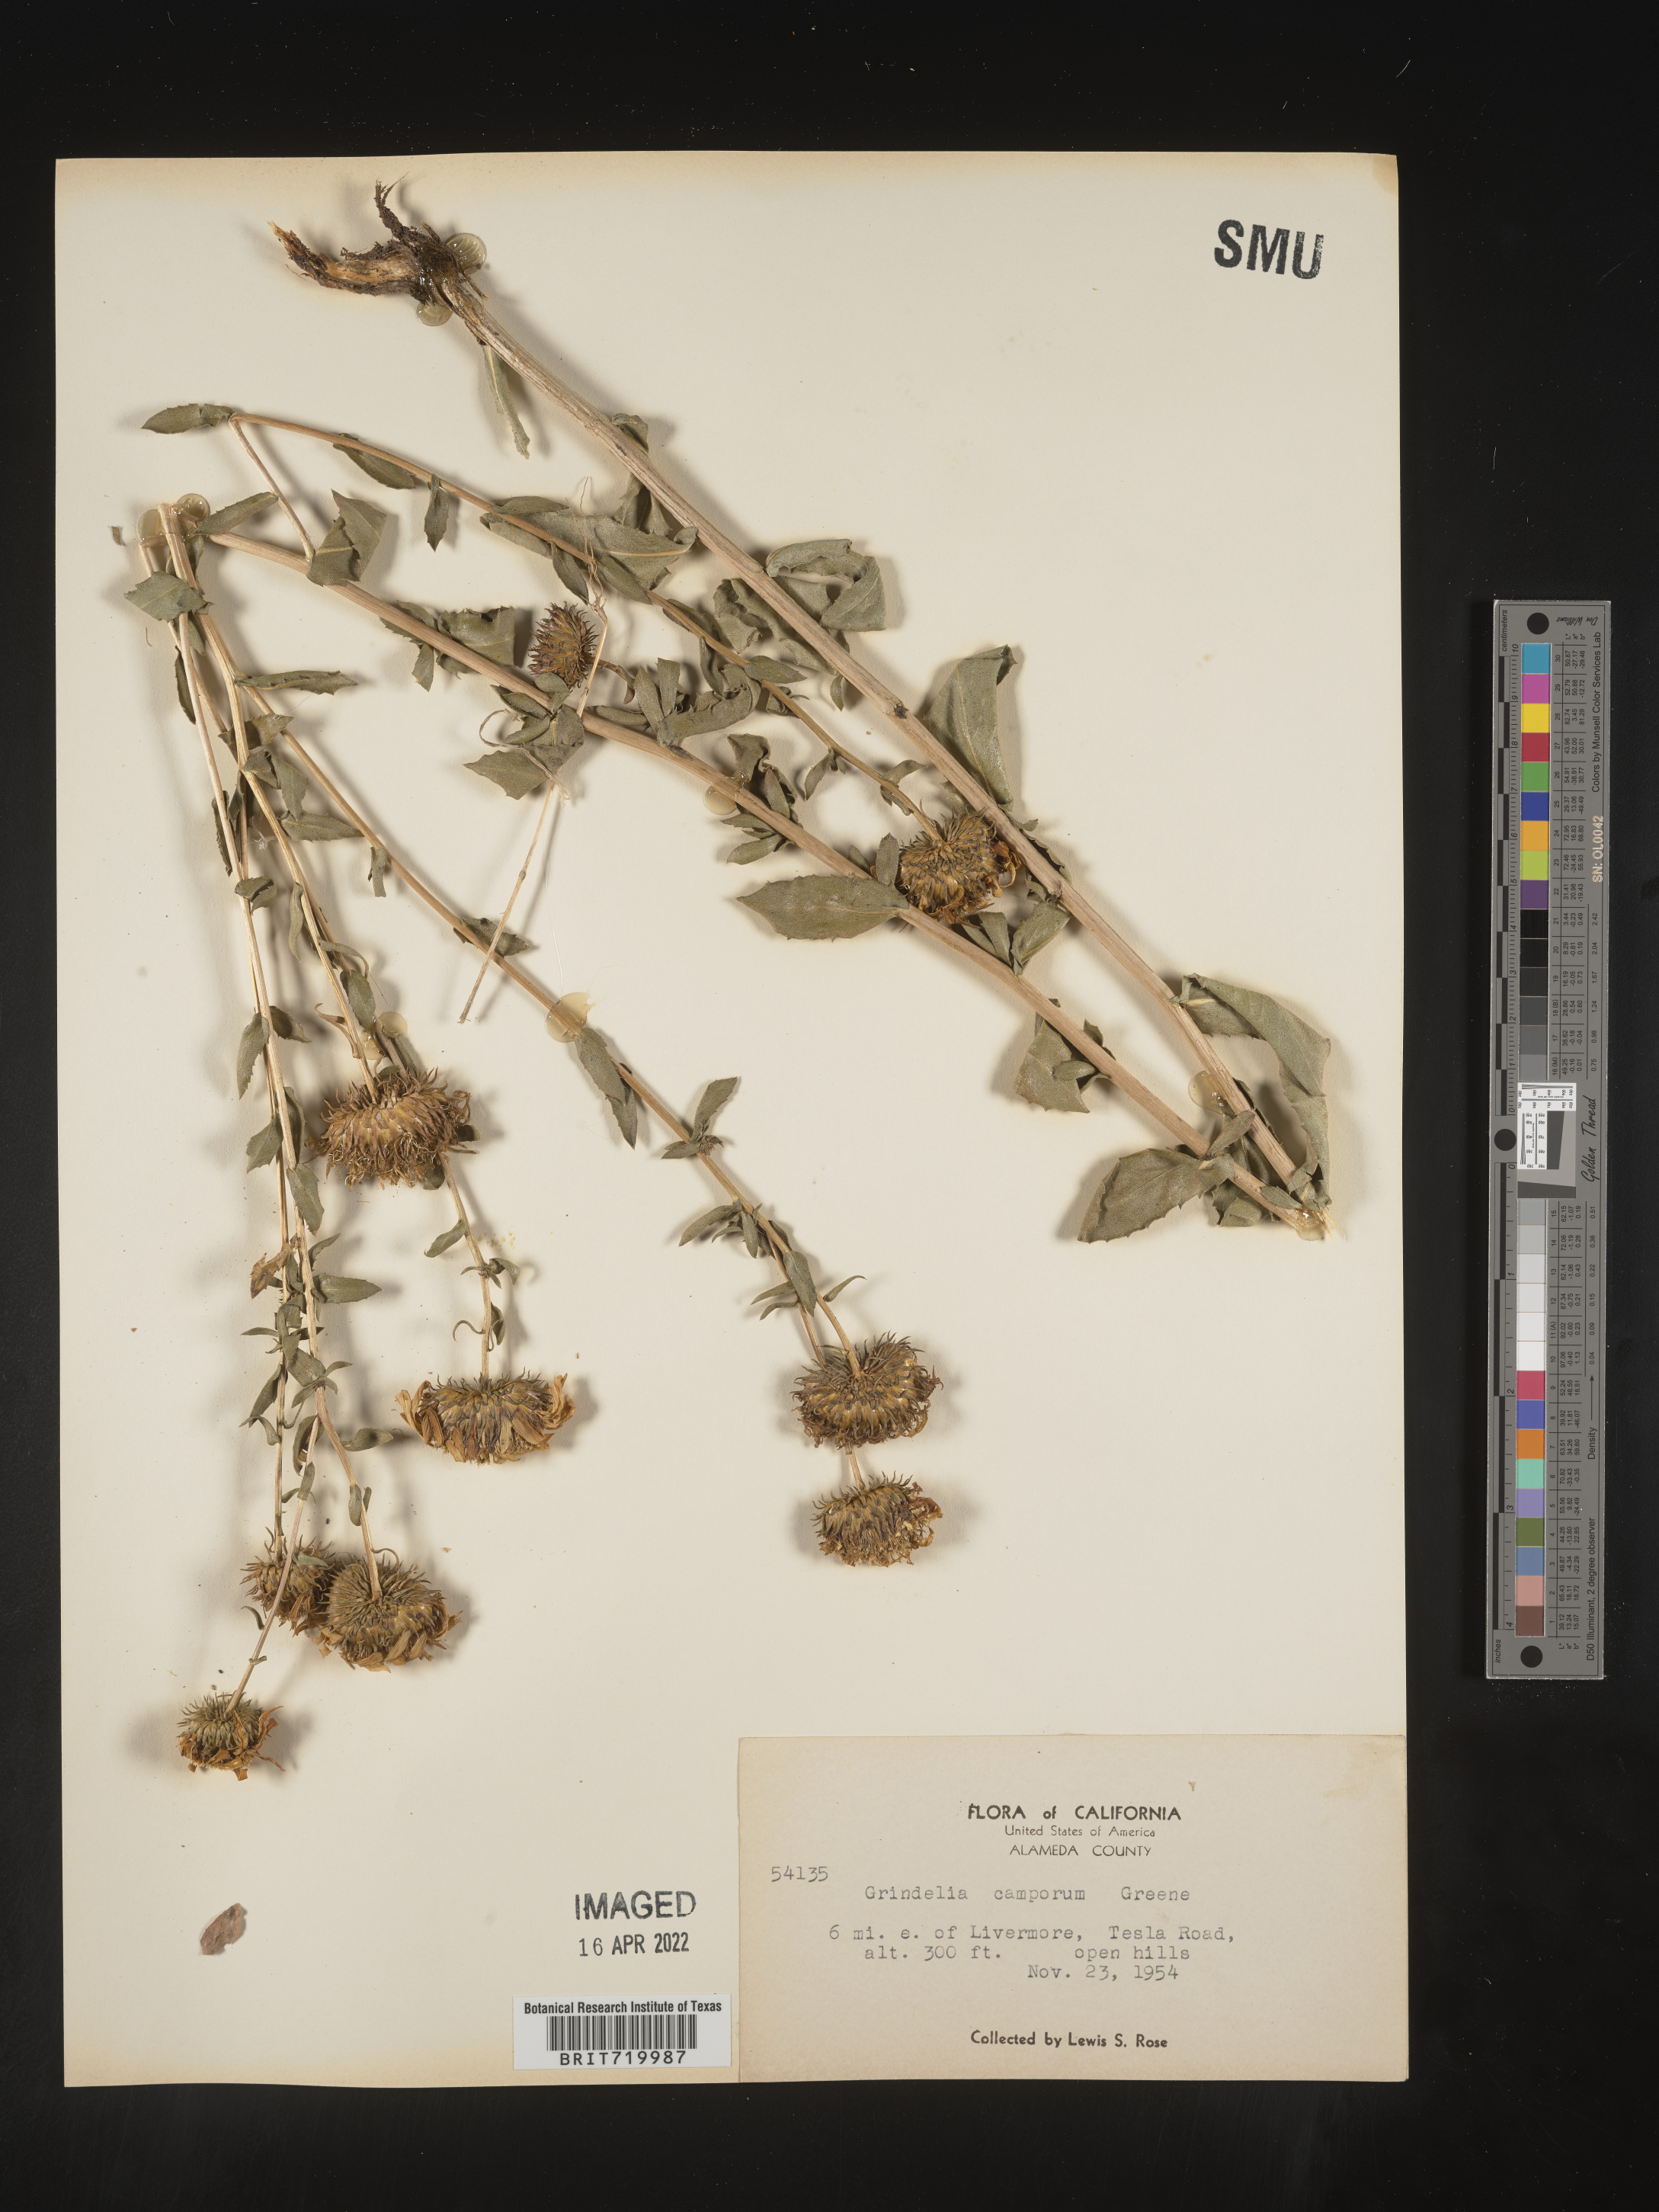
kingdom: Plantae
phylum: Tracheophyta
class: Magnoliopsida
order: Asterales
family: Asteraceae
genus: Grindelia
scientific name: Grindelia hirsutula
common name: Hairy gumweed
